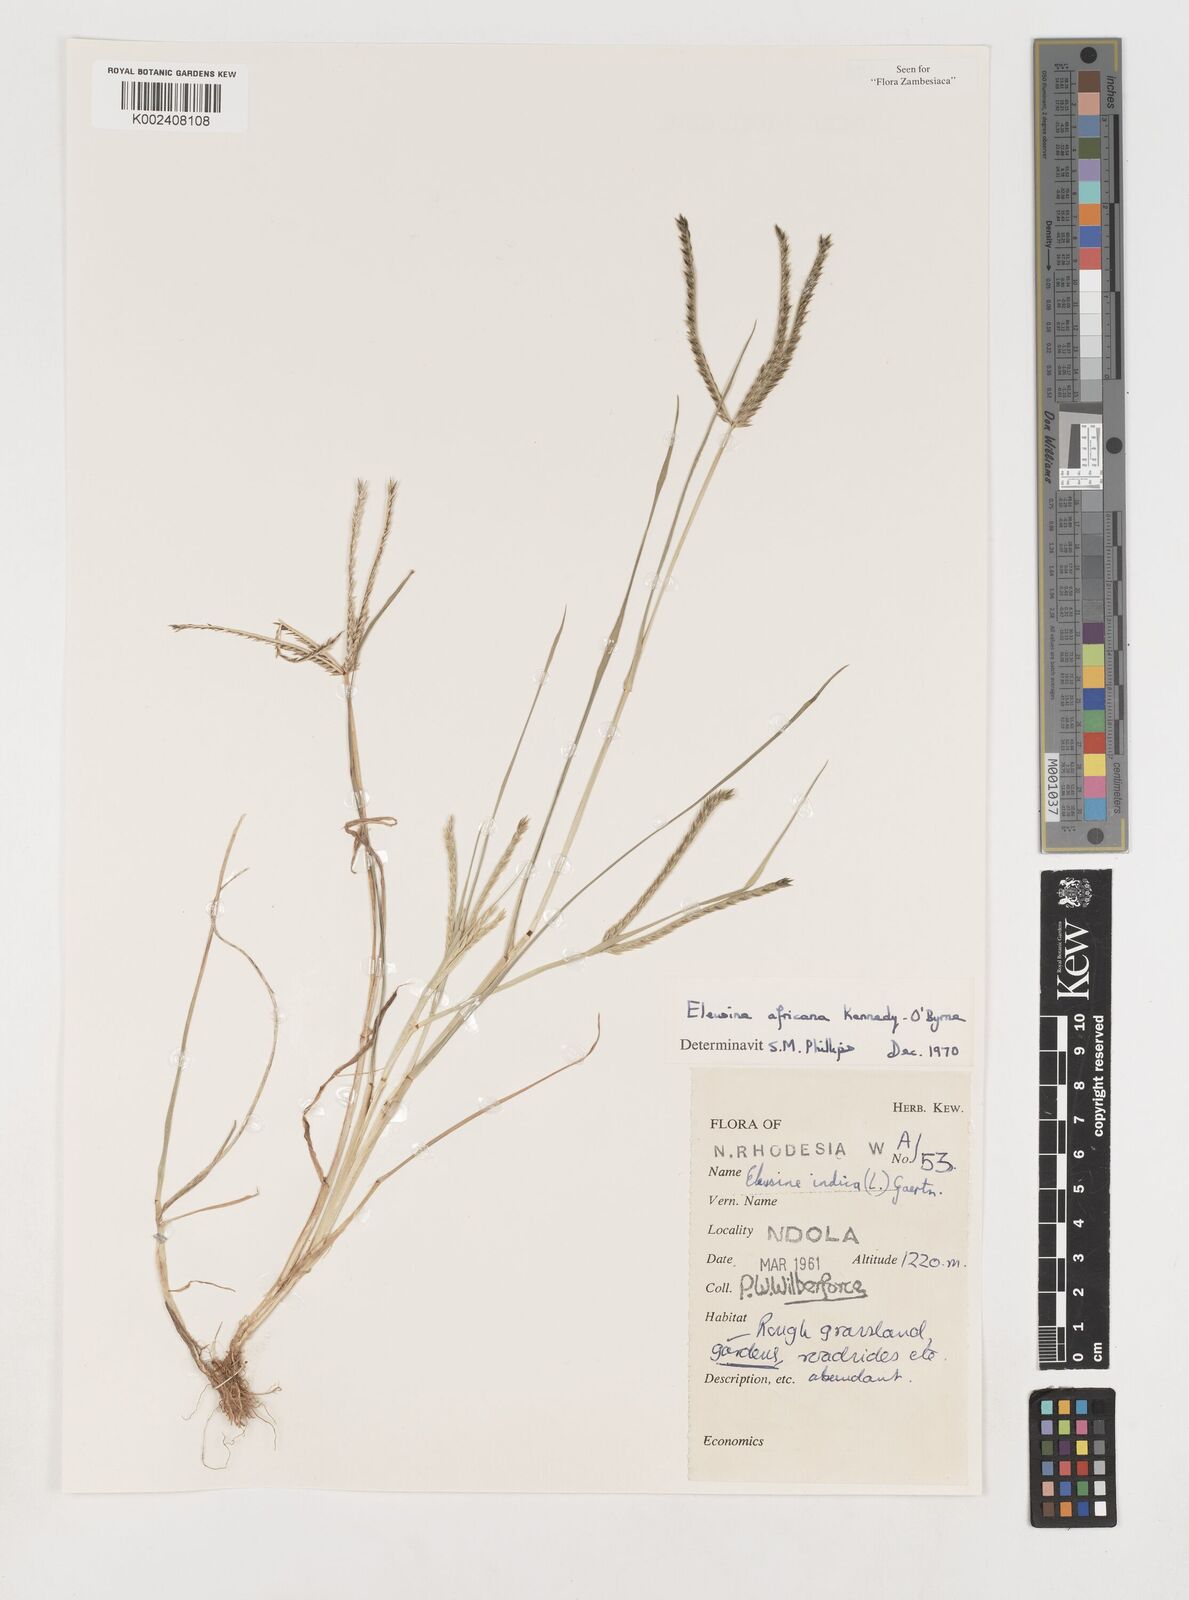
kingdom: Plantae
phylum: Tracheophyta
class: Liliopsida
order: Poales
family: Poaceae
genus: Eleusine
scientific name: Eleusine africana
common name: Wild african finger millet
